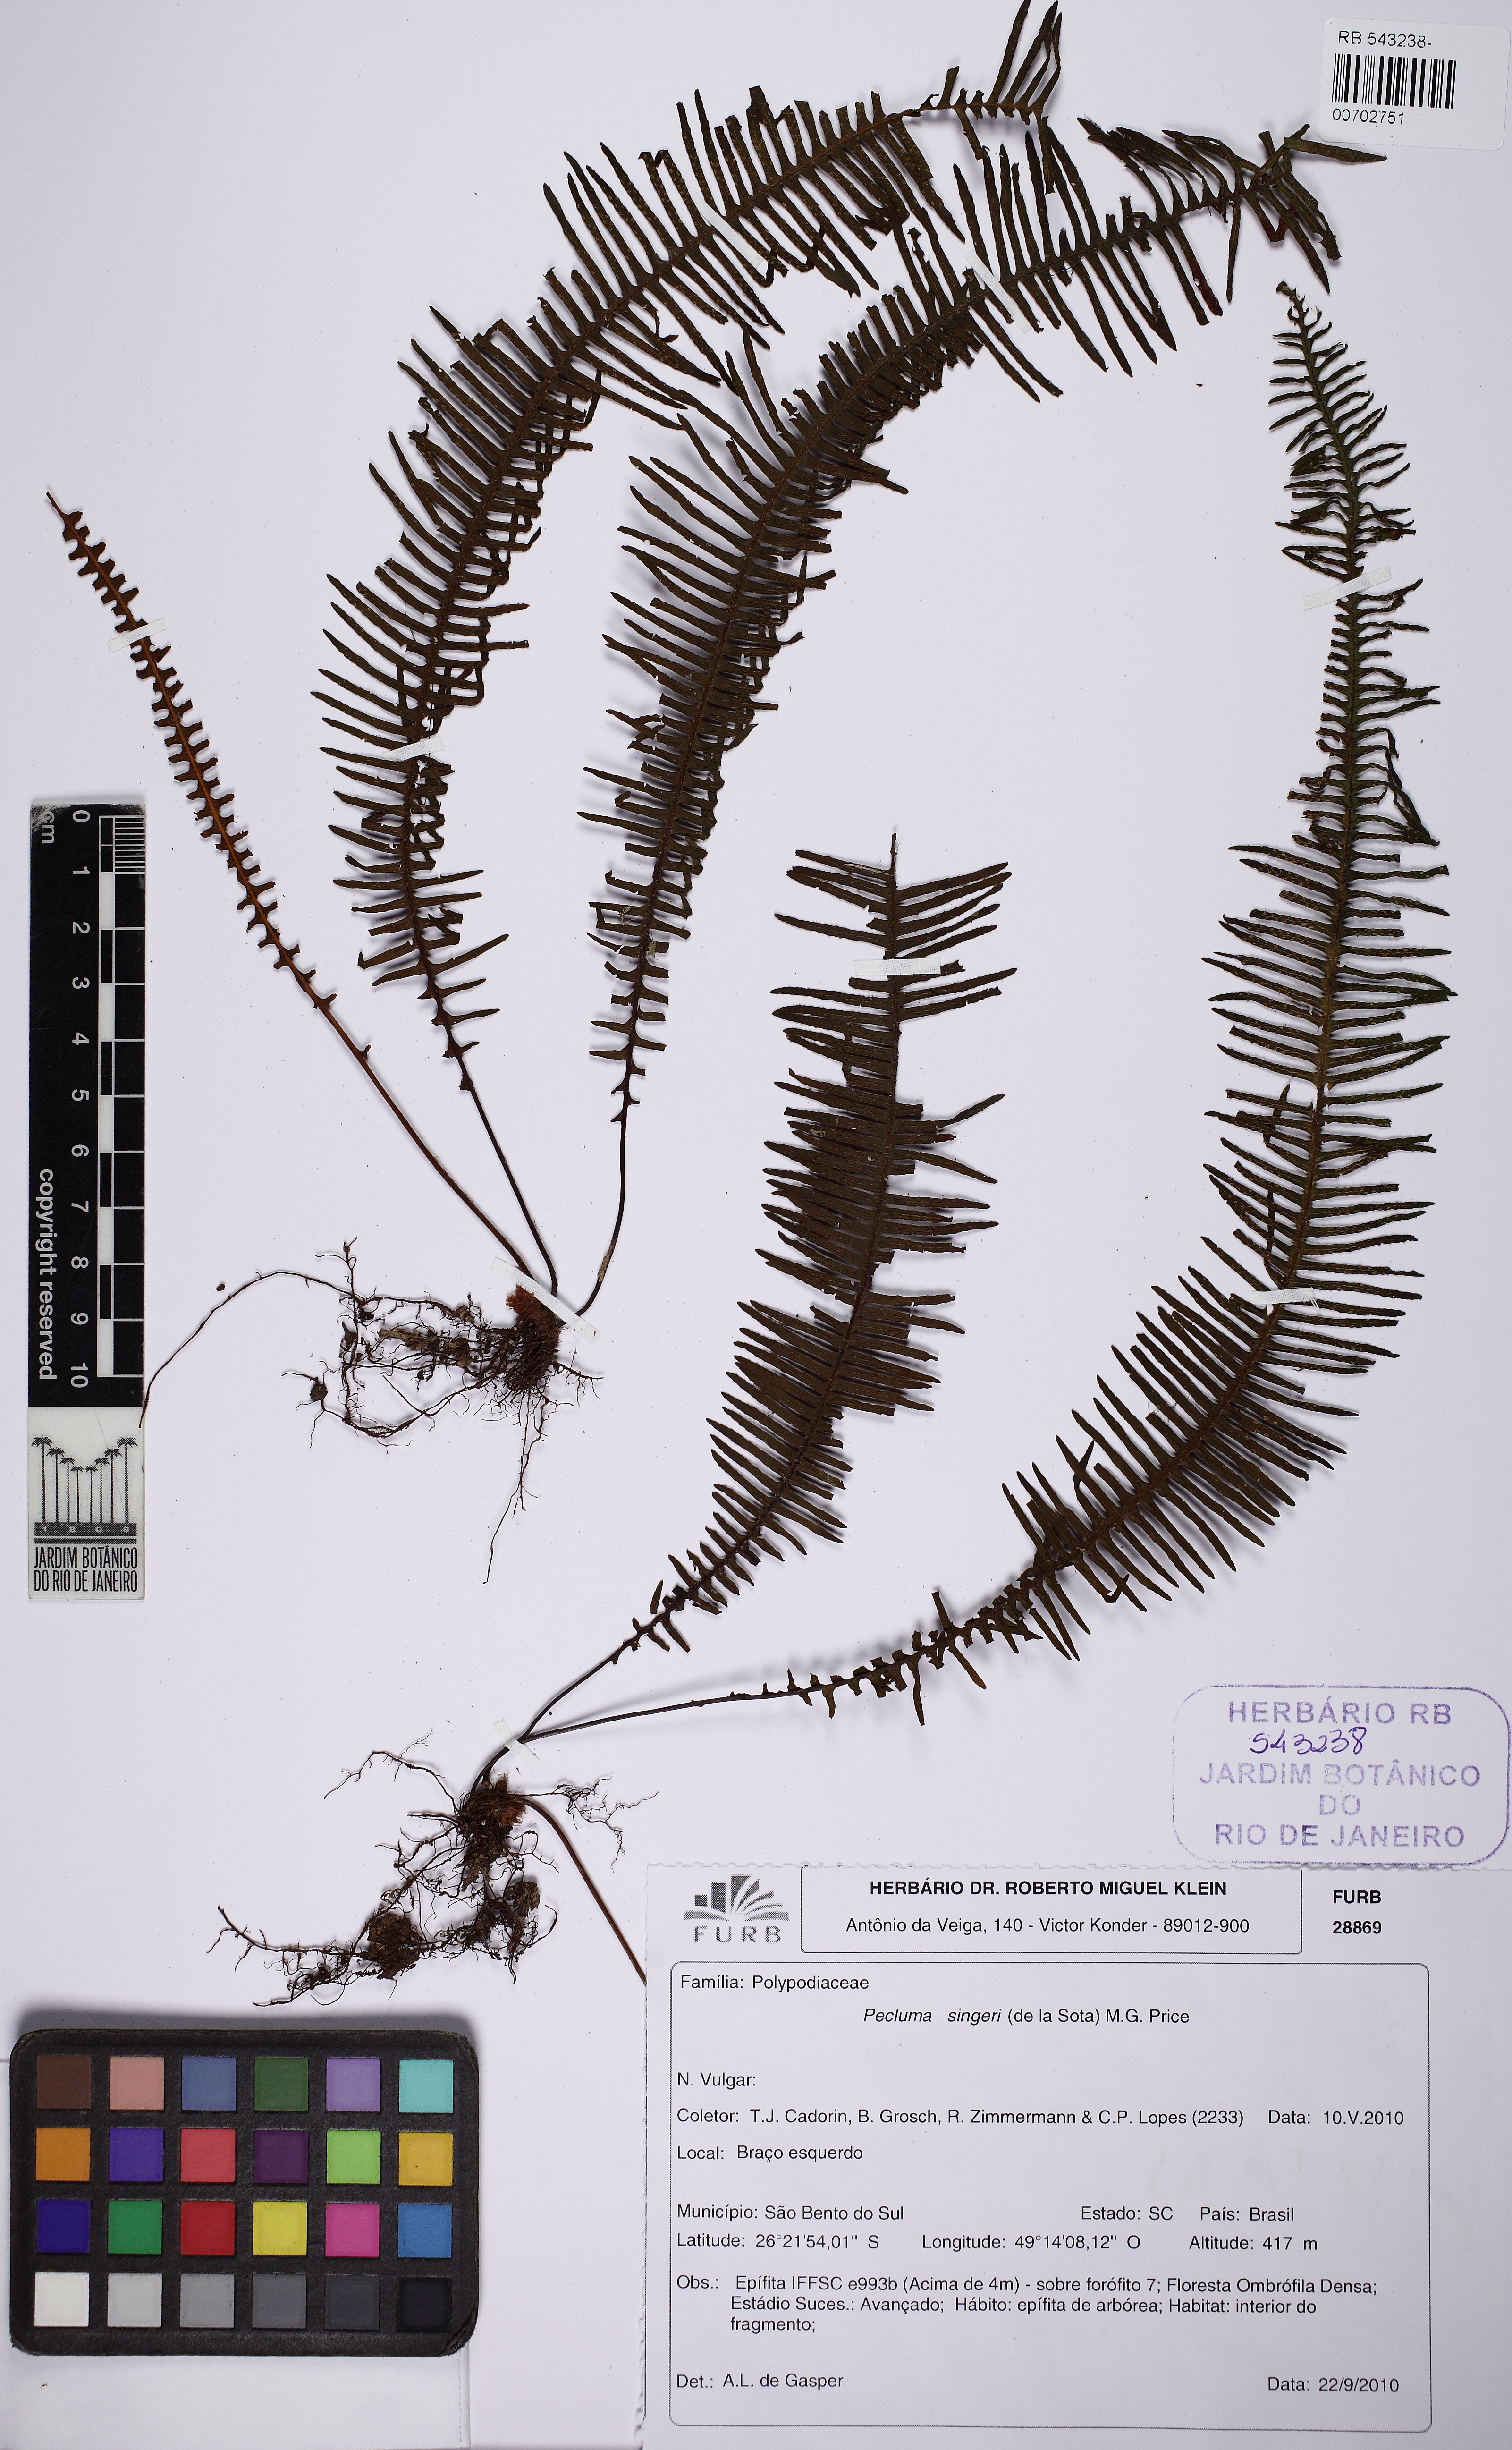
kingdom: Plantae
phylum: Tracheophyta
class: Polypodiopsida
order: Polypodiales
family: Polypodiaceae
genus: Pecluma
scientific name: Pecluma singeri
